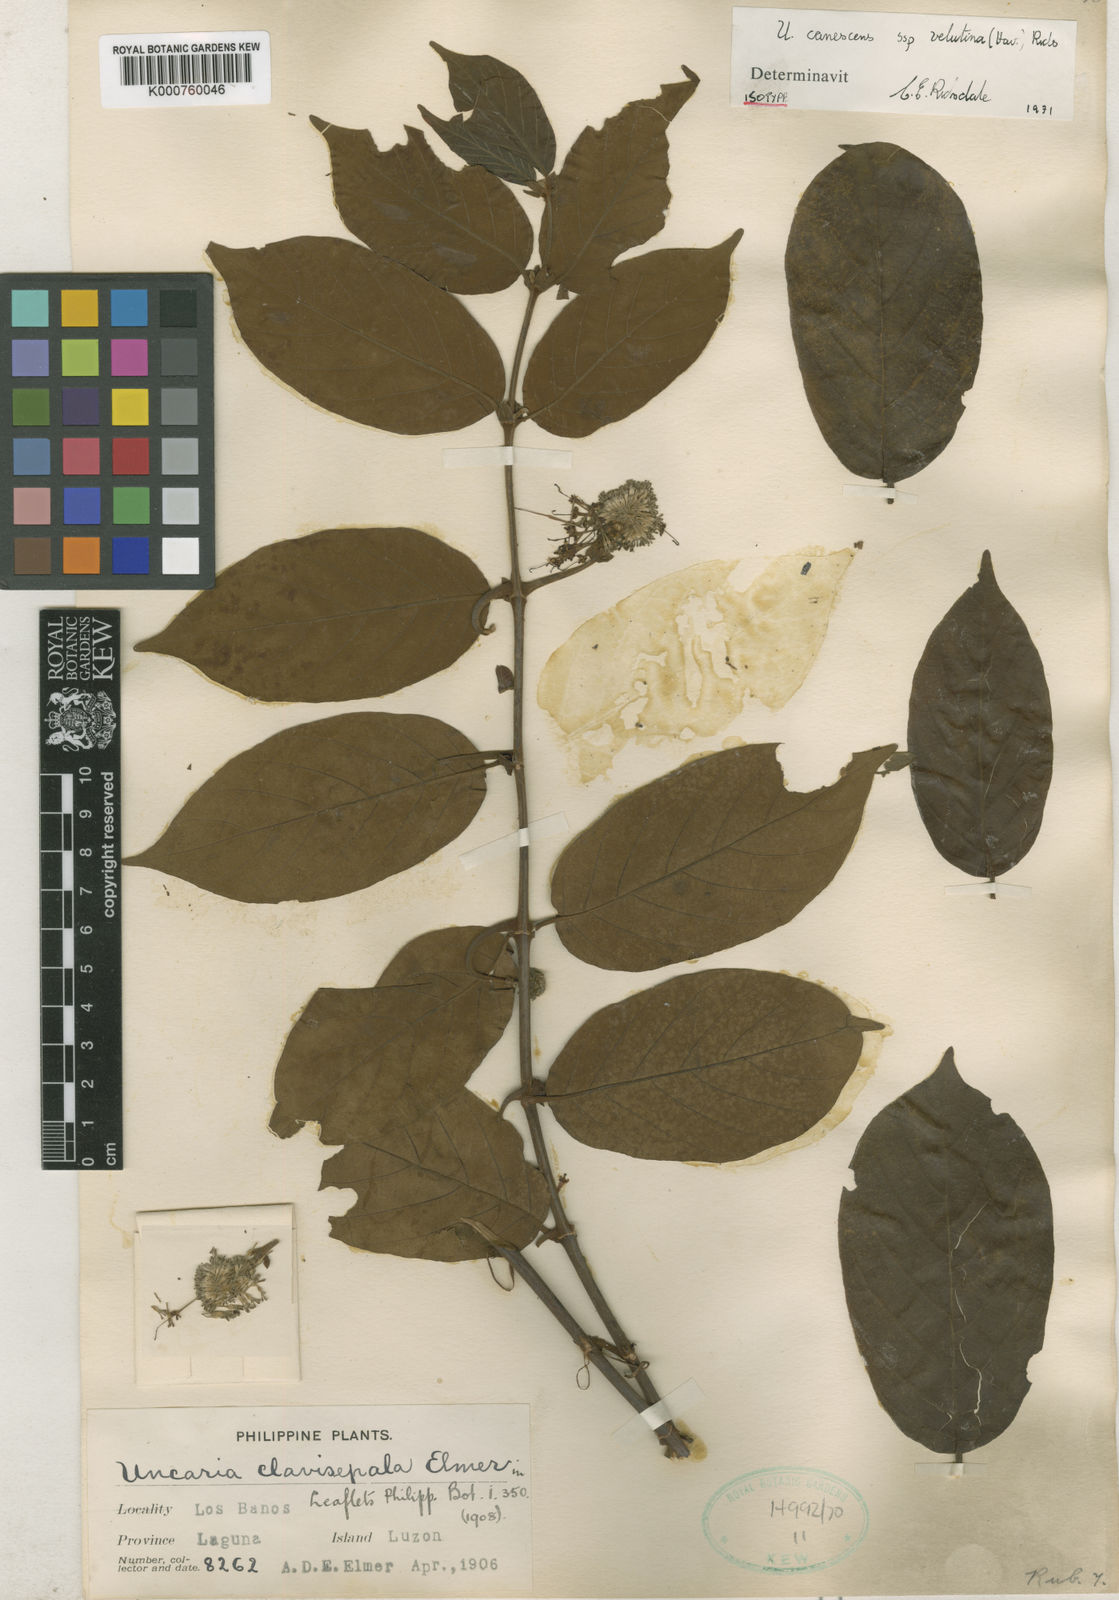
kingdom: Plantae
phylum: Tracheophyta
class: Magnoliopsida
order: Gentianales
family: Rubiaceae
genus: Uncaria
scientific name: Uncaria velutina
